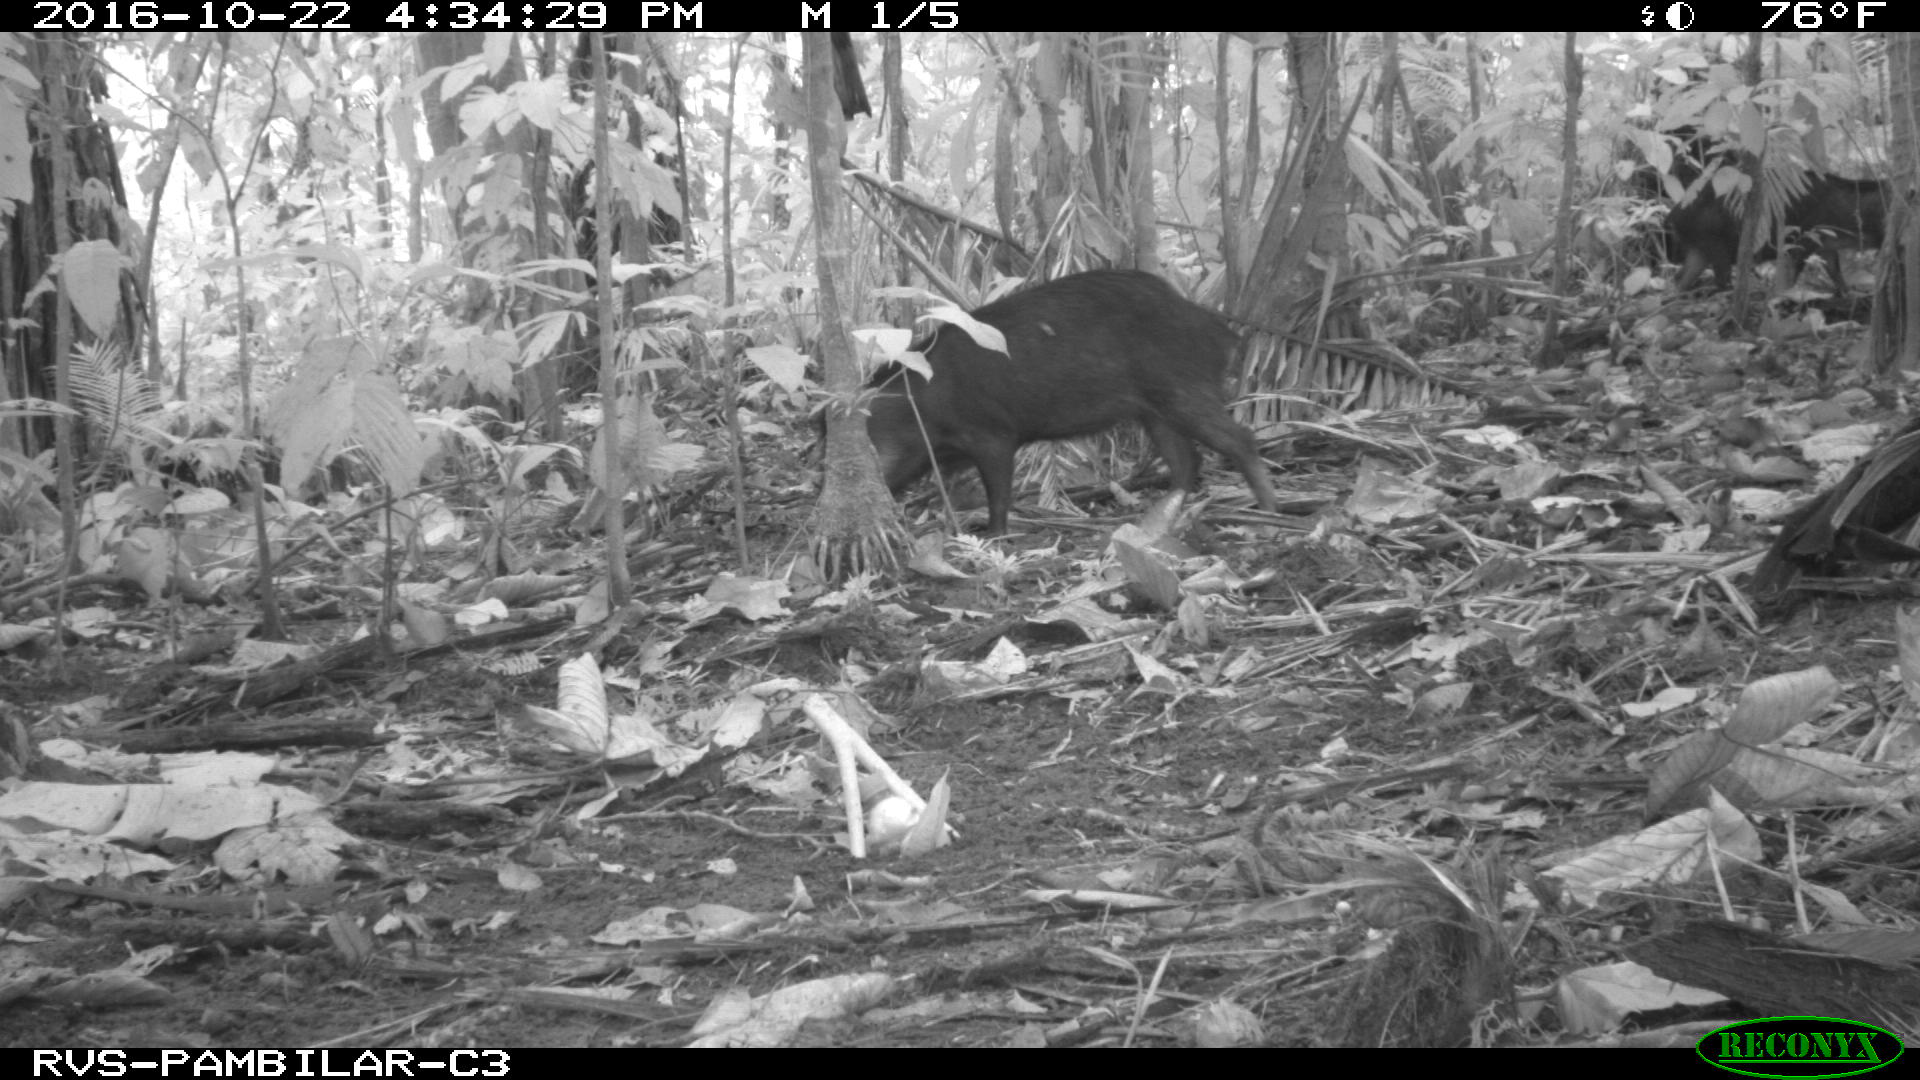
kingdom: Animalia
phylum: Chordata
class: Mammalia
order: Artiodactyla
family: Tayassuidae
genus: Tayassu
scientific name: Tayassu pecari
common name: White-lipped peccary
